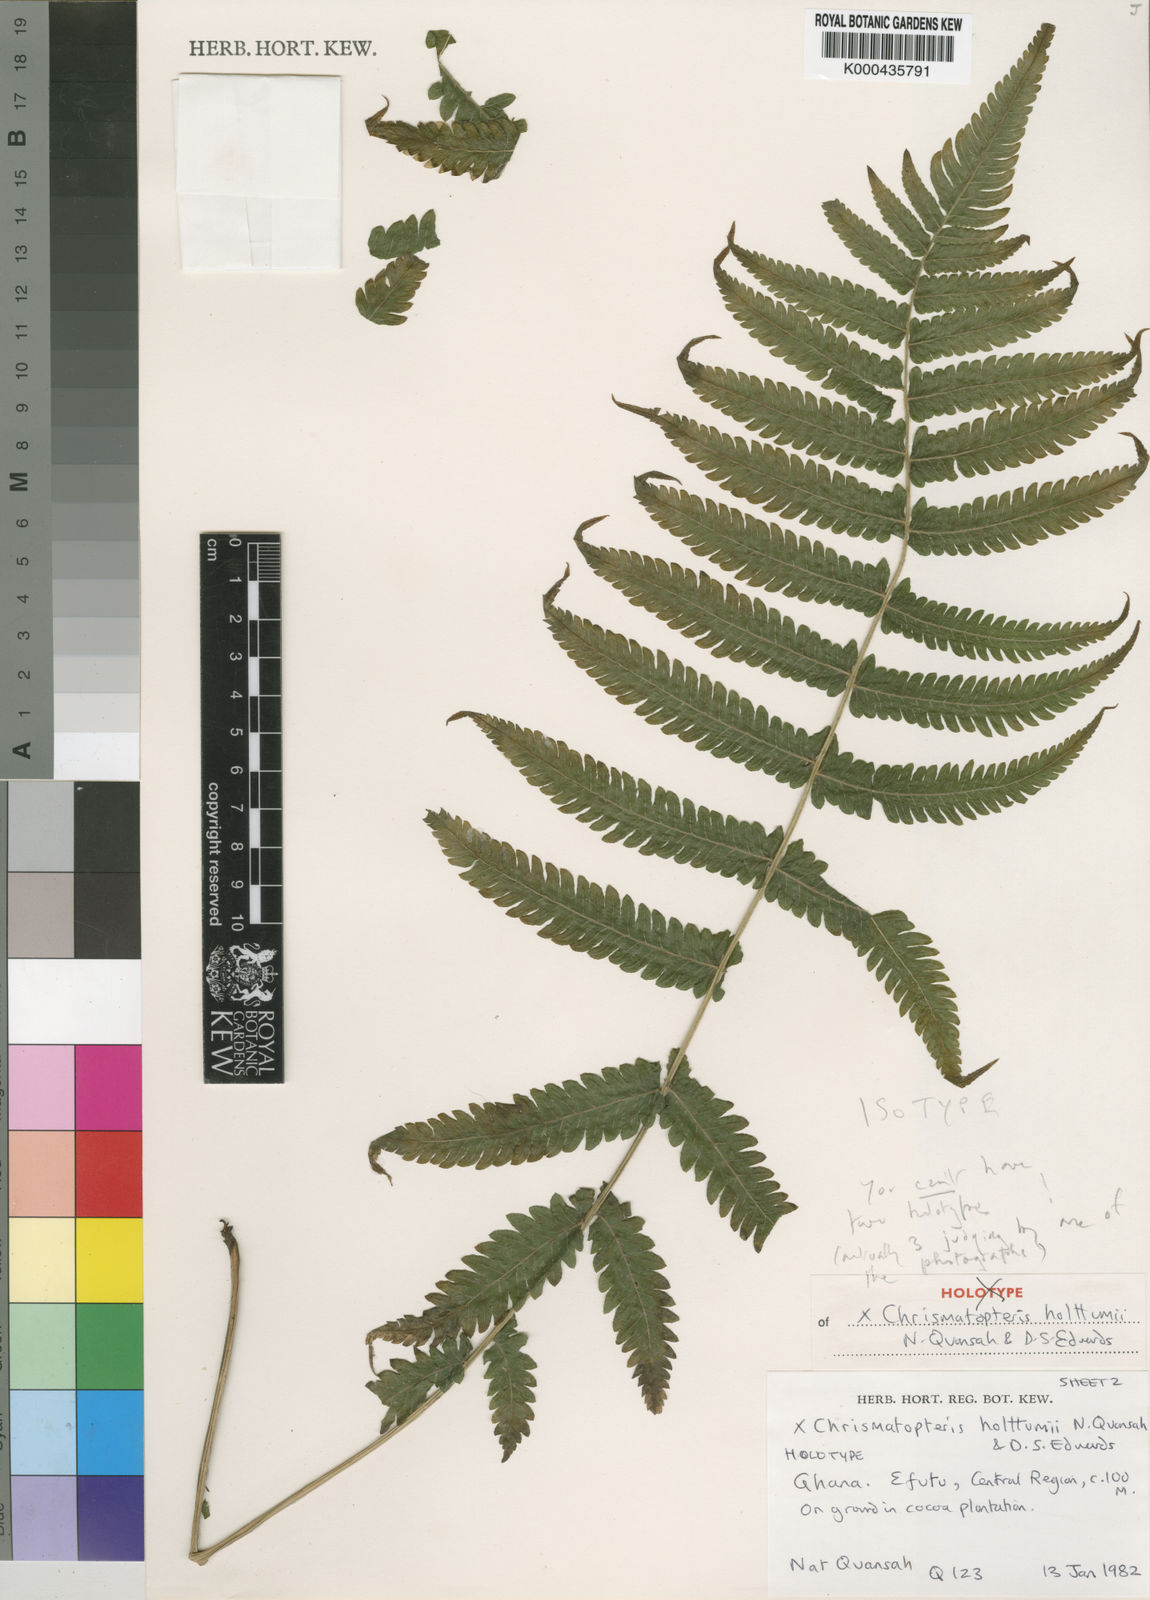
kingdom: Plantae
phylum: Tracheophyta
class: Polypodiopsida
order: Polypodiales
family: Thelypteridaceae
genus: Chrismatopteris
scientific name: Chrismatopteris holttumii
